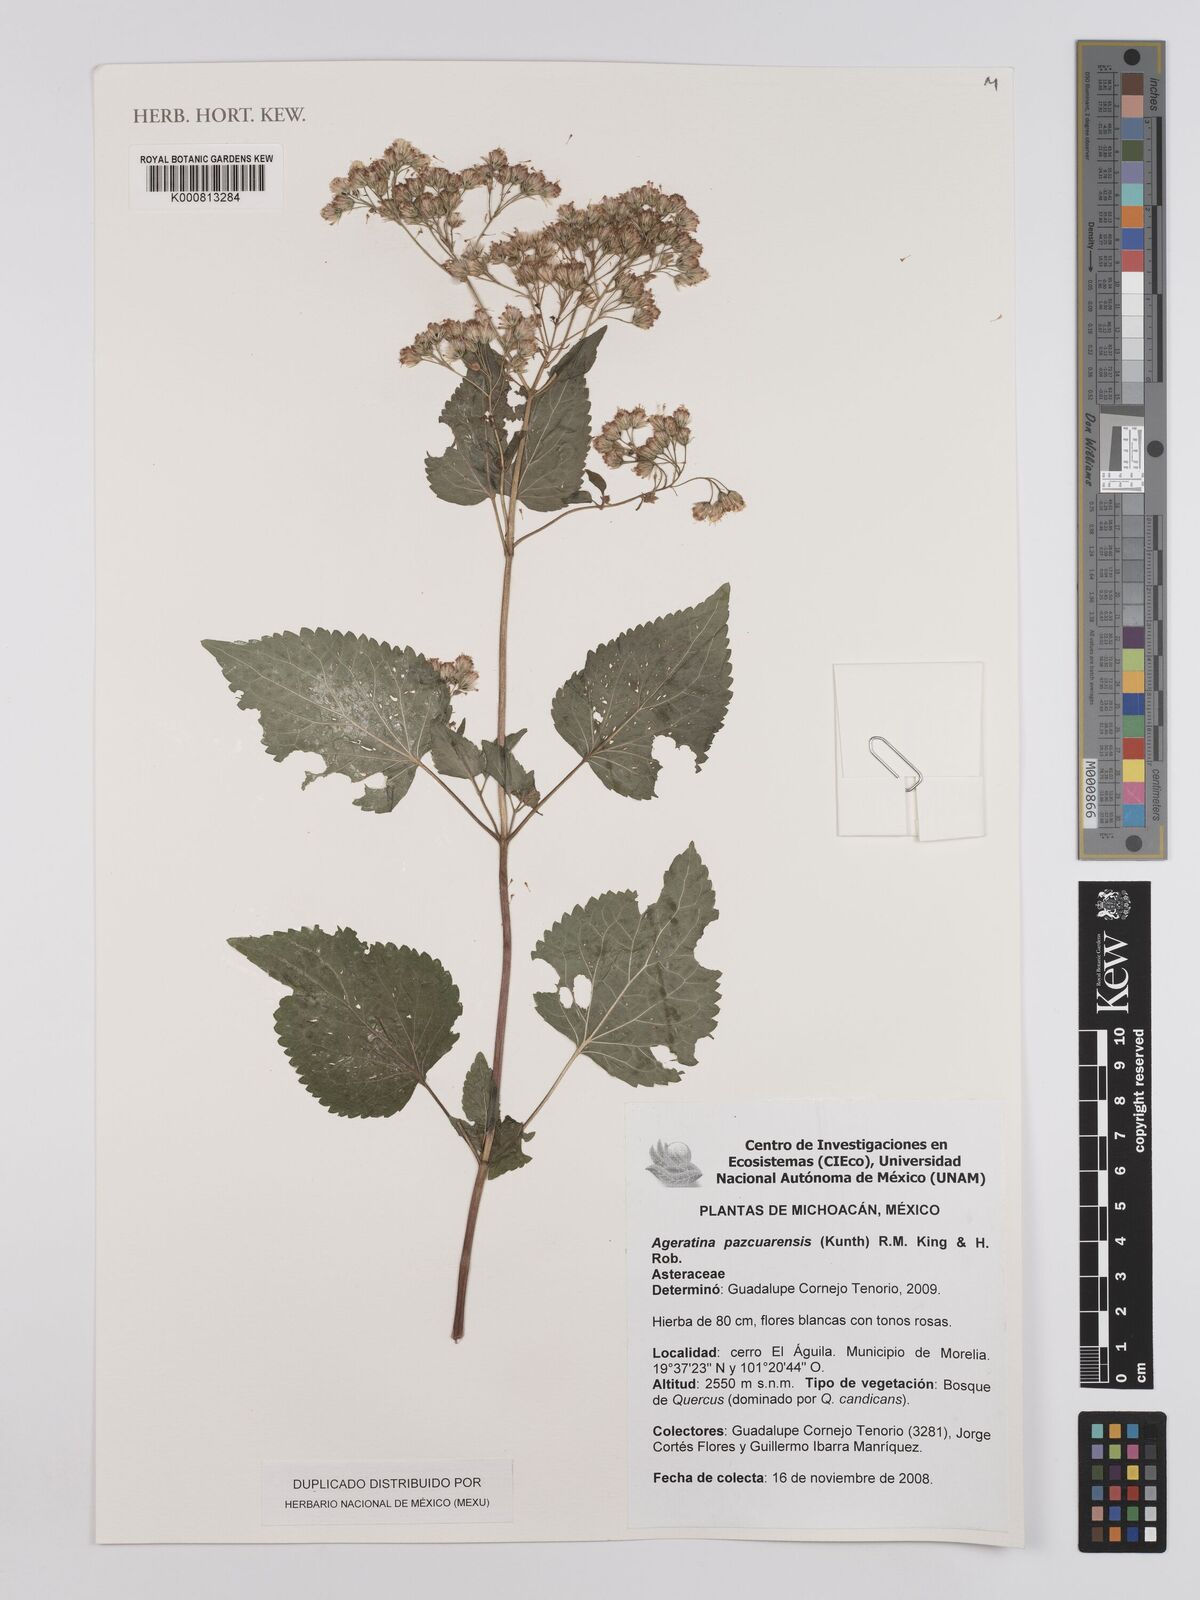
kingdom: Plantae
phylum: Tracheophyta
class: Magnoliopsida
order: Asterales
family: Asteraceae
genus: Ageratina
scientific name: Ageratina pazcuarensis
